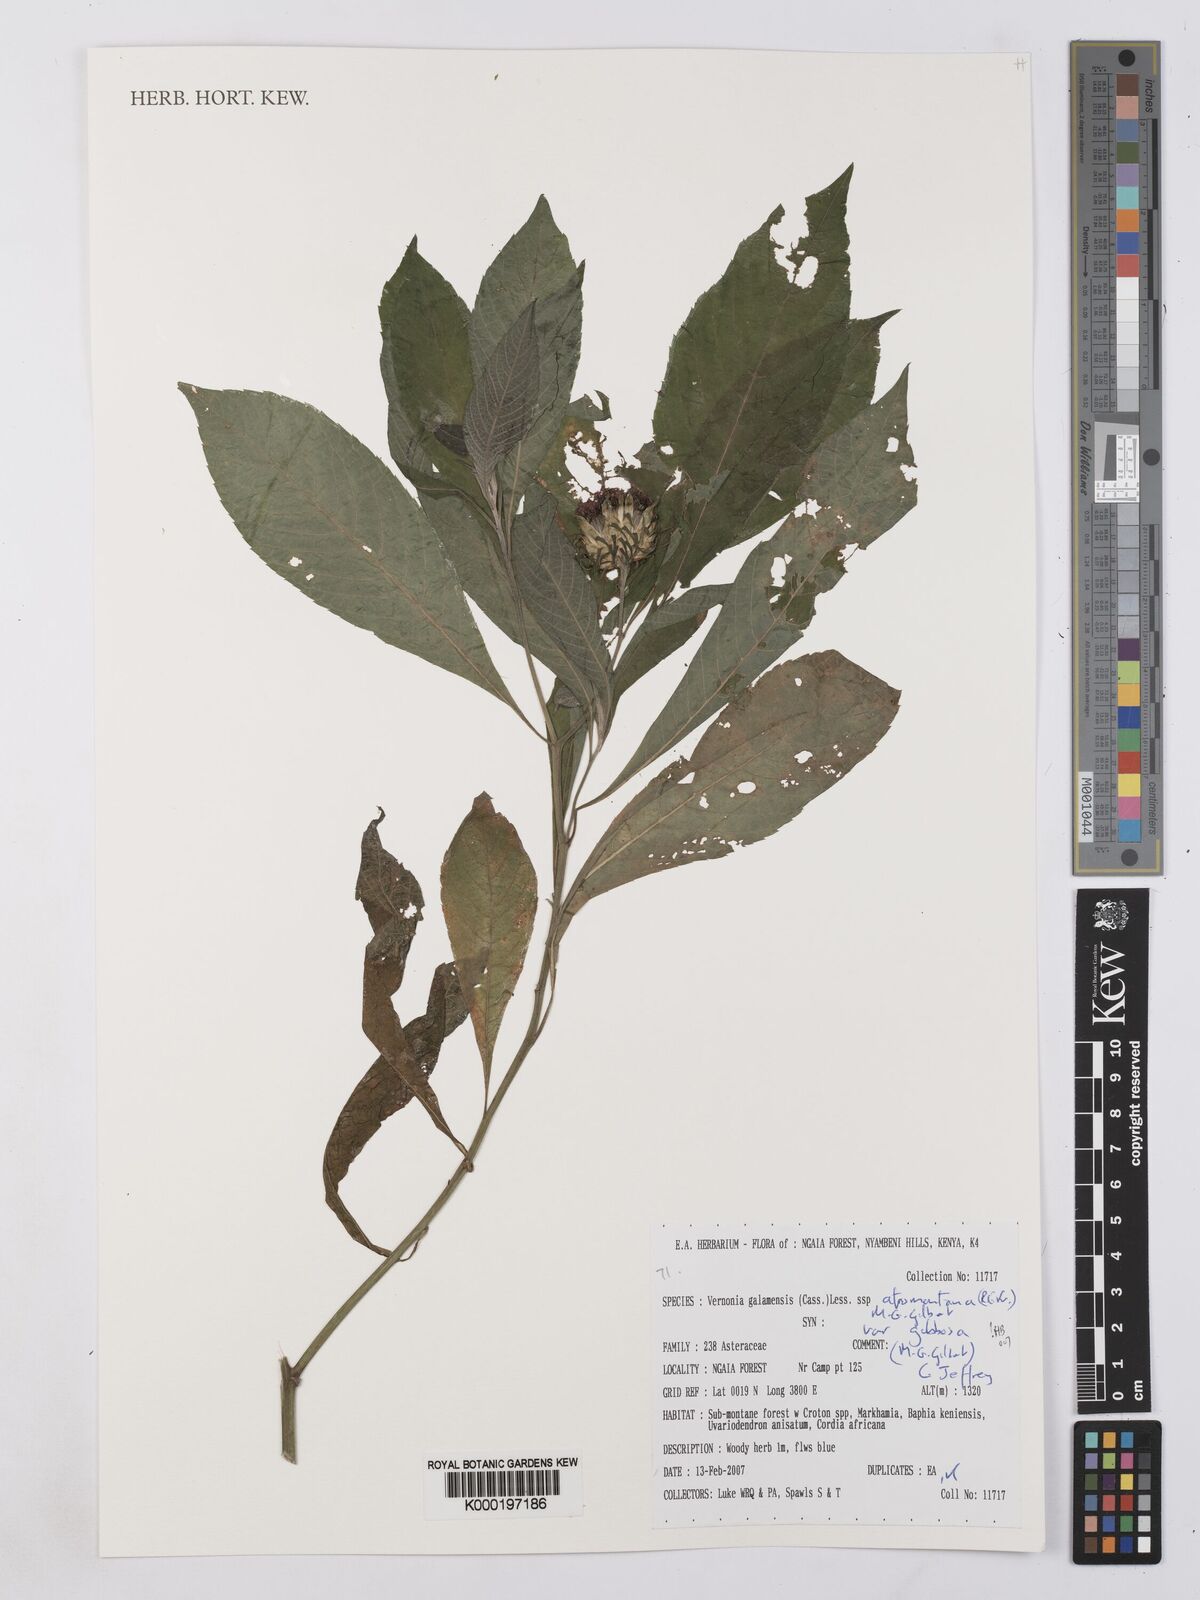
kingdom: Plantae
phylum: Tracheophyta
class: Magnoliopsida
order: Asterales
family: Asteraceae
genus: Vernonia
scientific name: Vernonia galamensis
